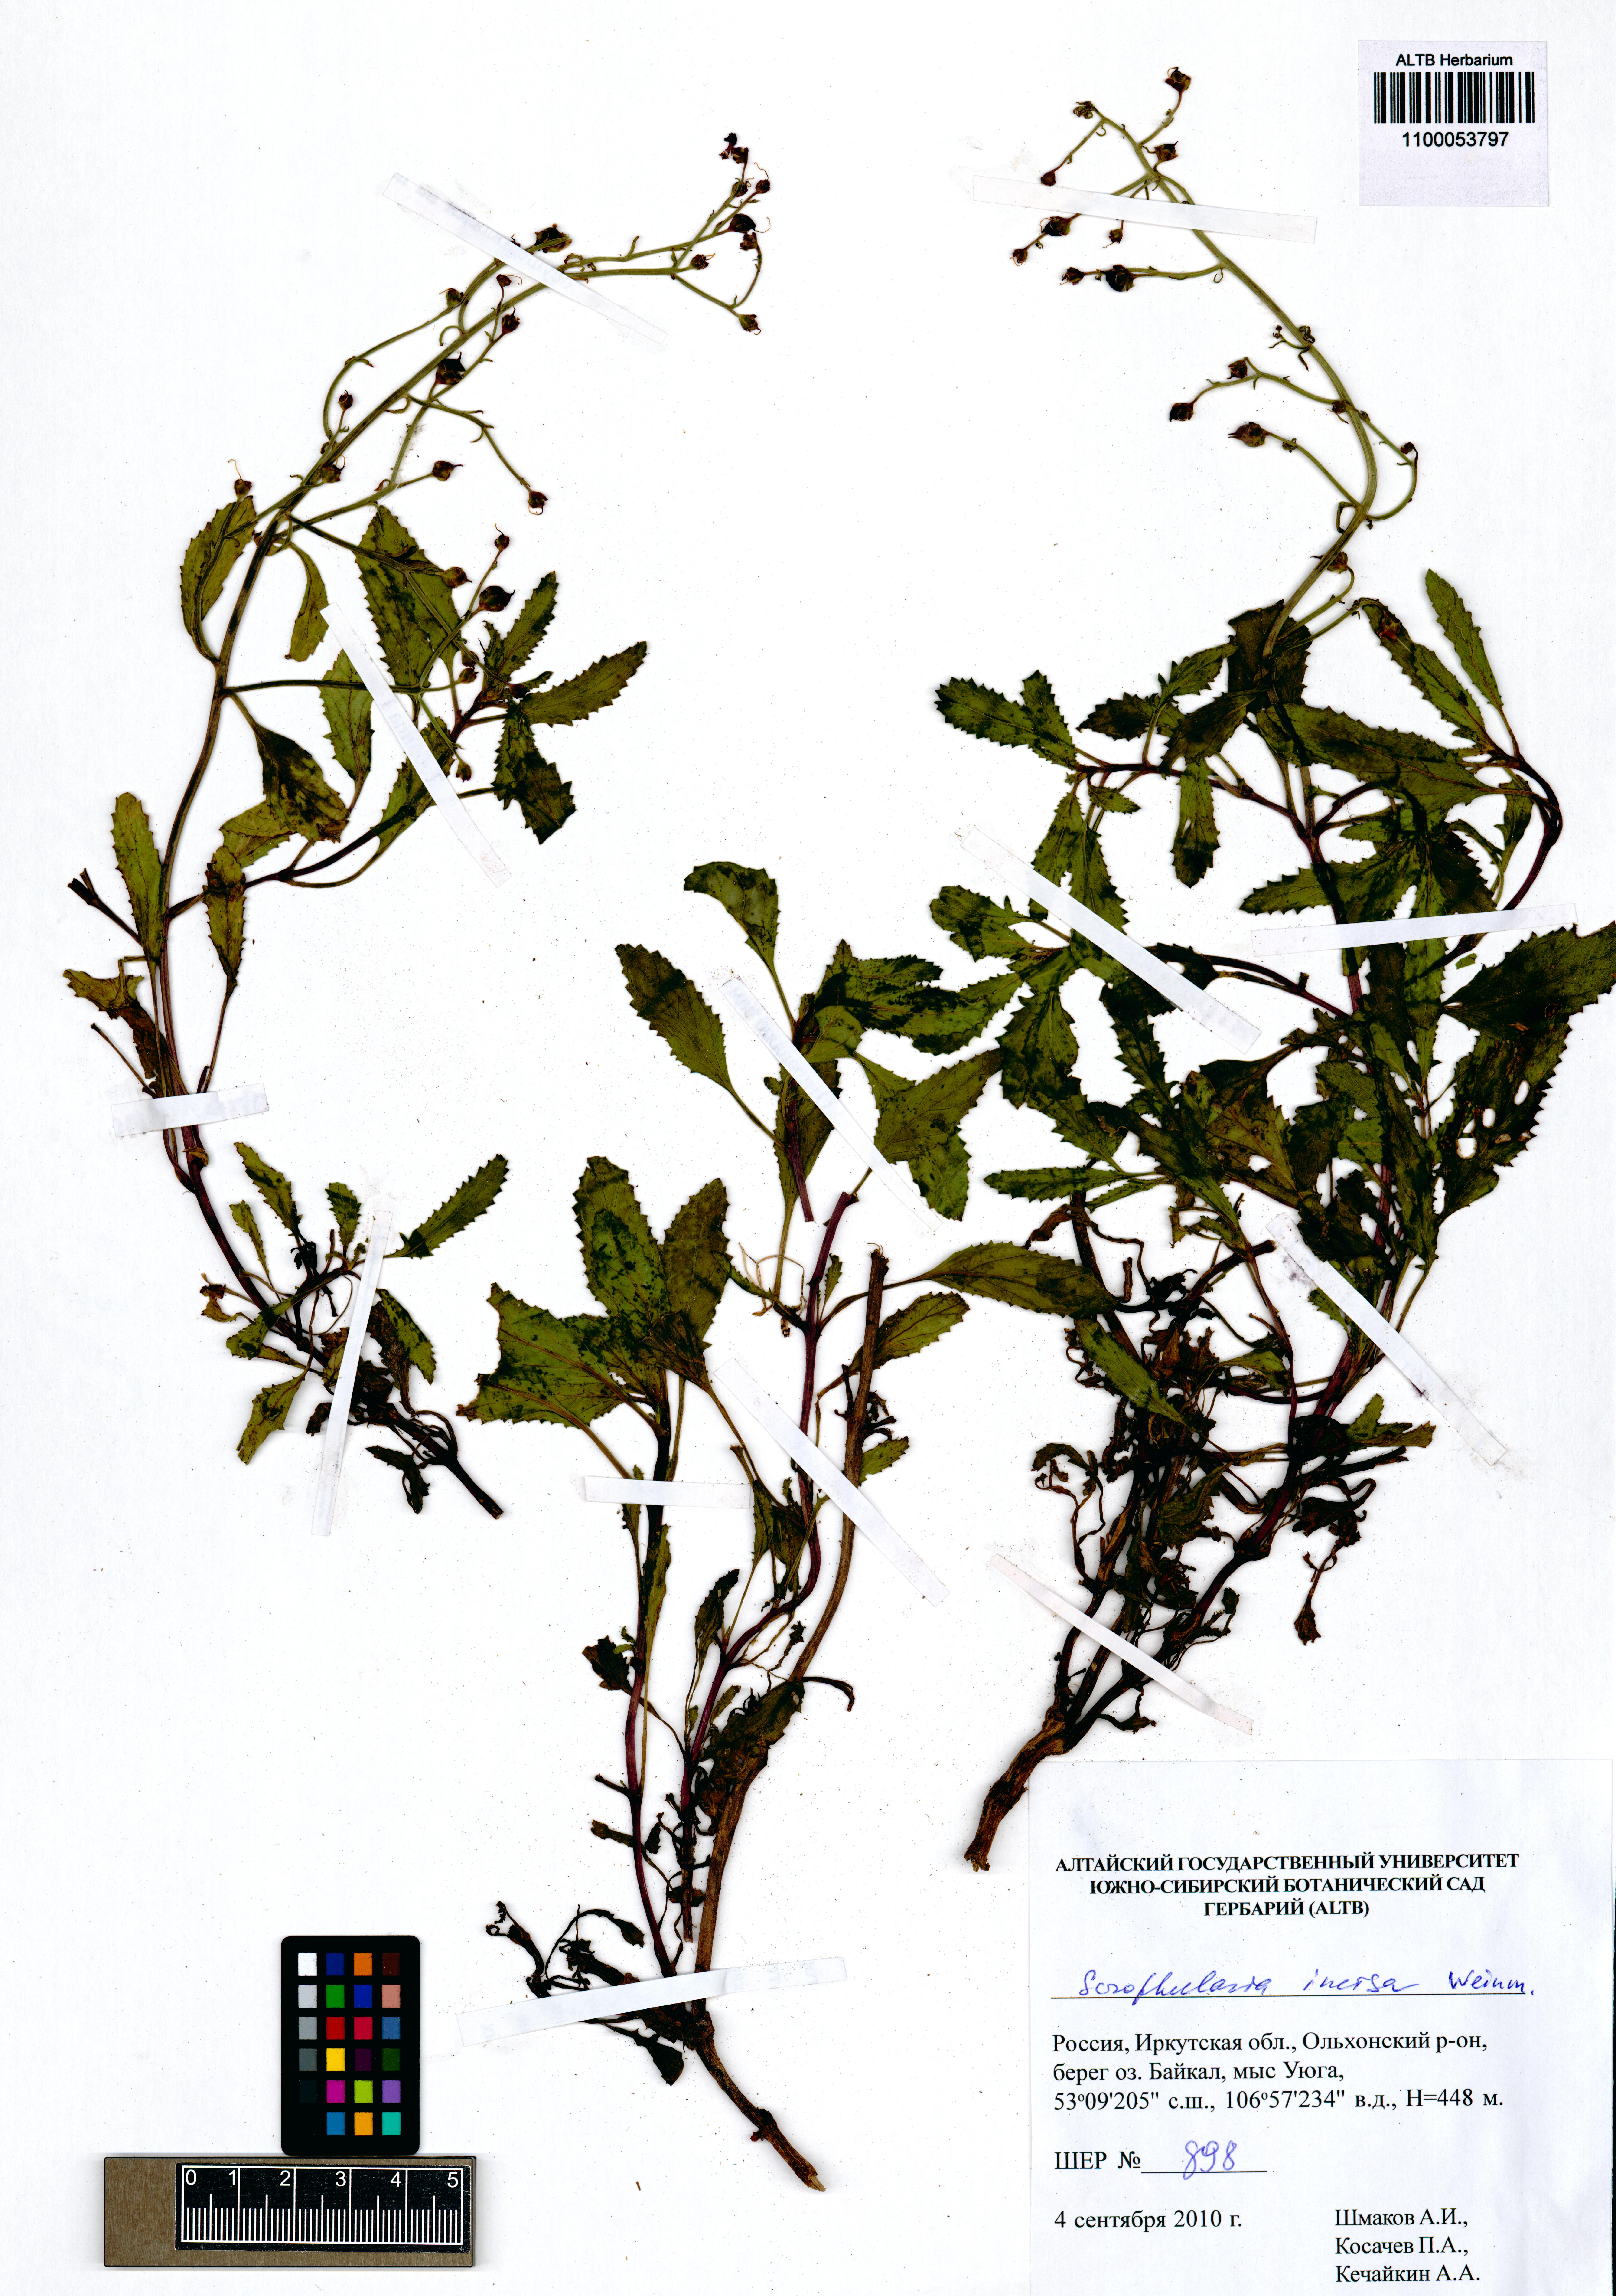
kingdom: Plantae
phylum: Tracheophyta
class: Magnoliopsida
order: Lamiales
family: Scrophulariaceae
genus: Scrophularia
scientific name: Scrophularia incisa
